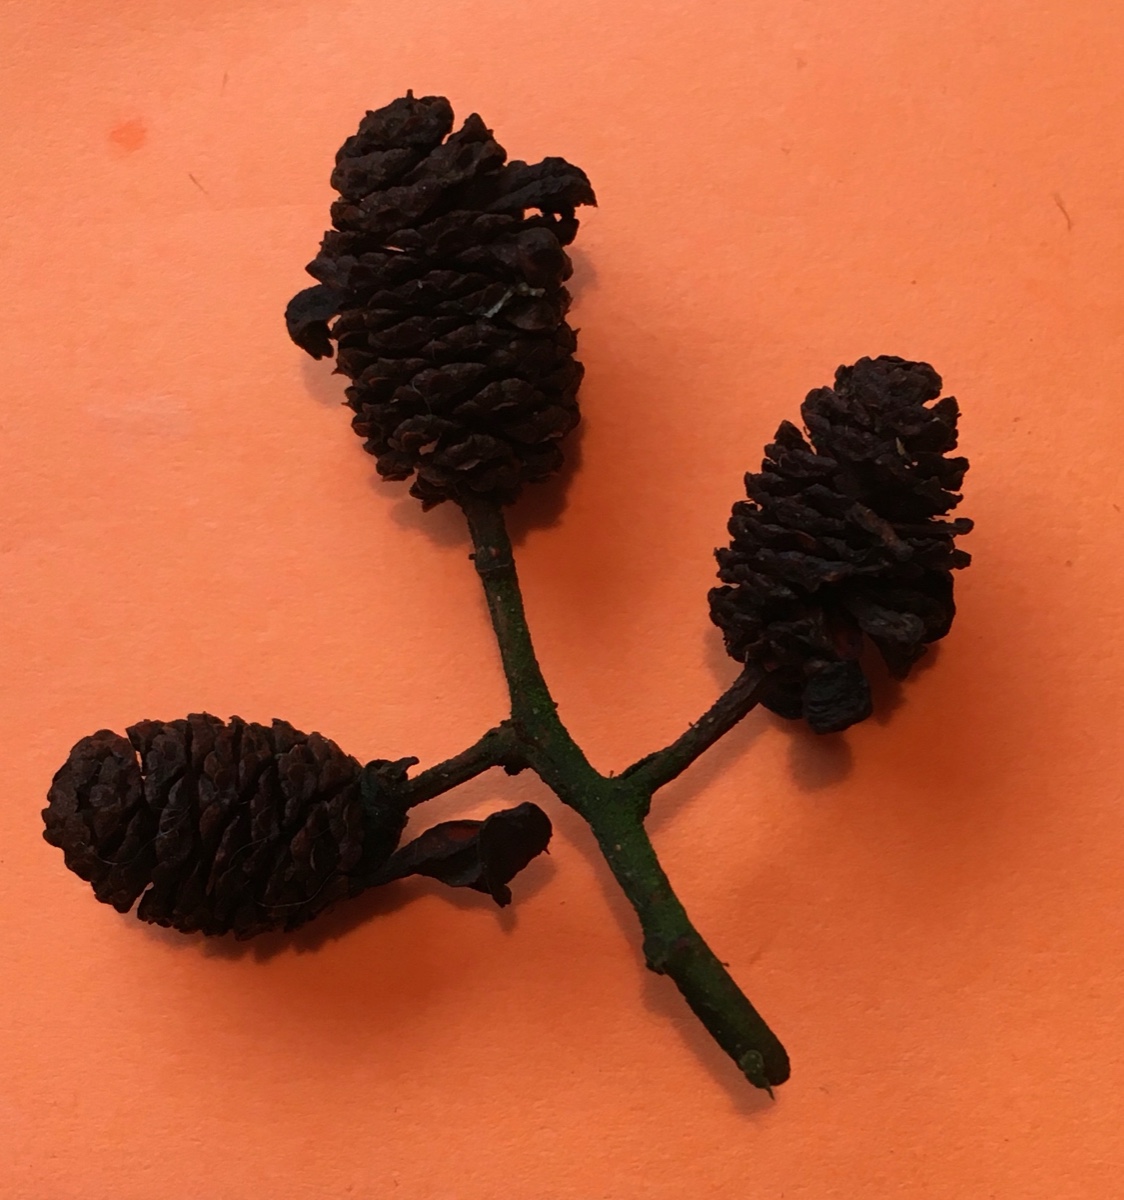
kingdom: Fungi
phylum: Ascomycota
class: Taphrinomycetes
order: Taphrinales
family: Taphrinaceae
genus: Taphrina
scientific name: Taphrina alni
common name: Alder tongue
